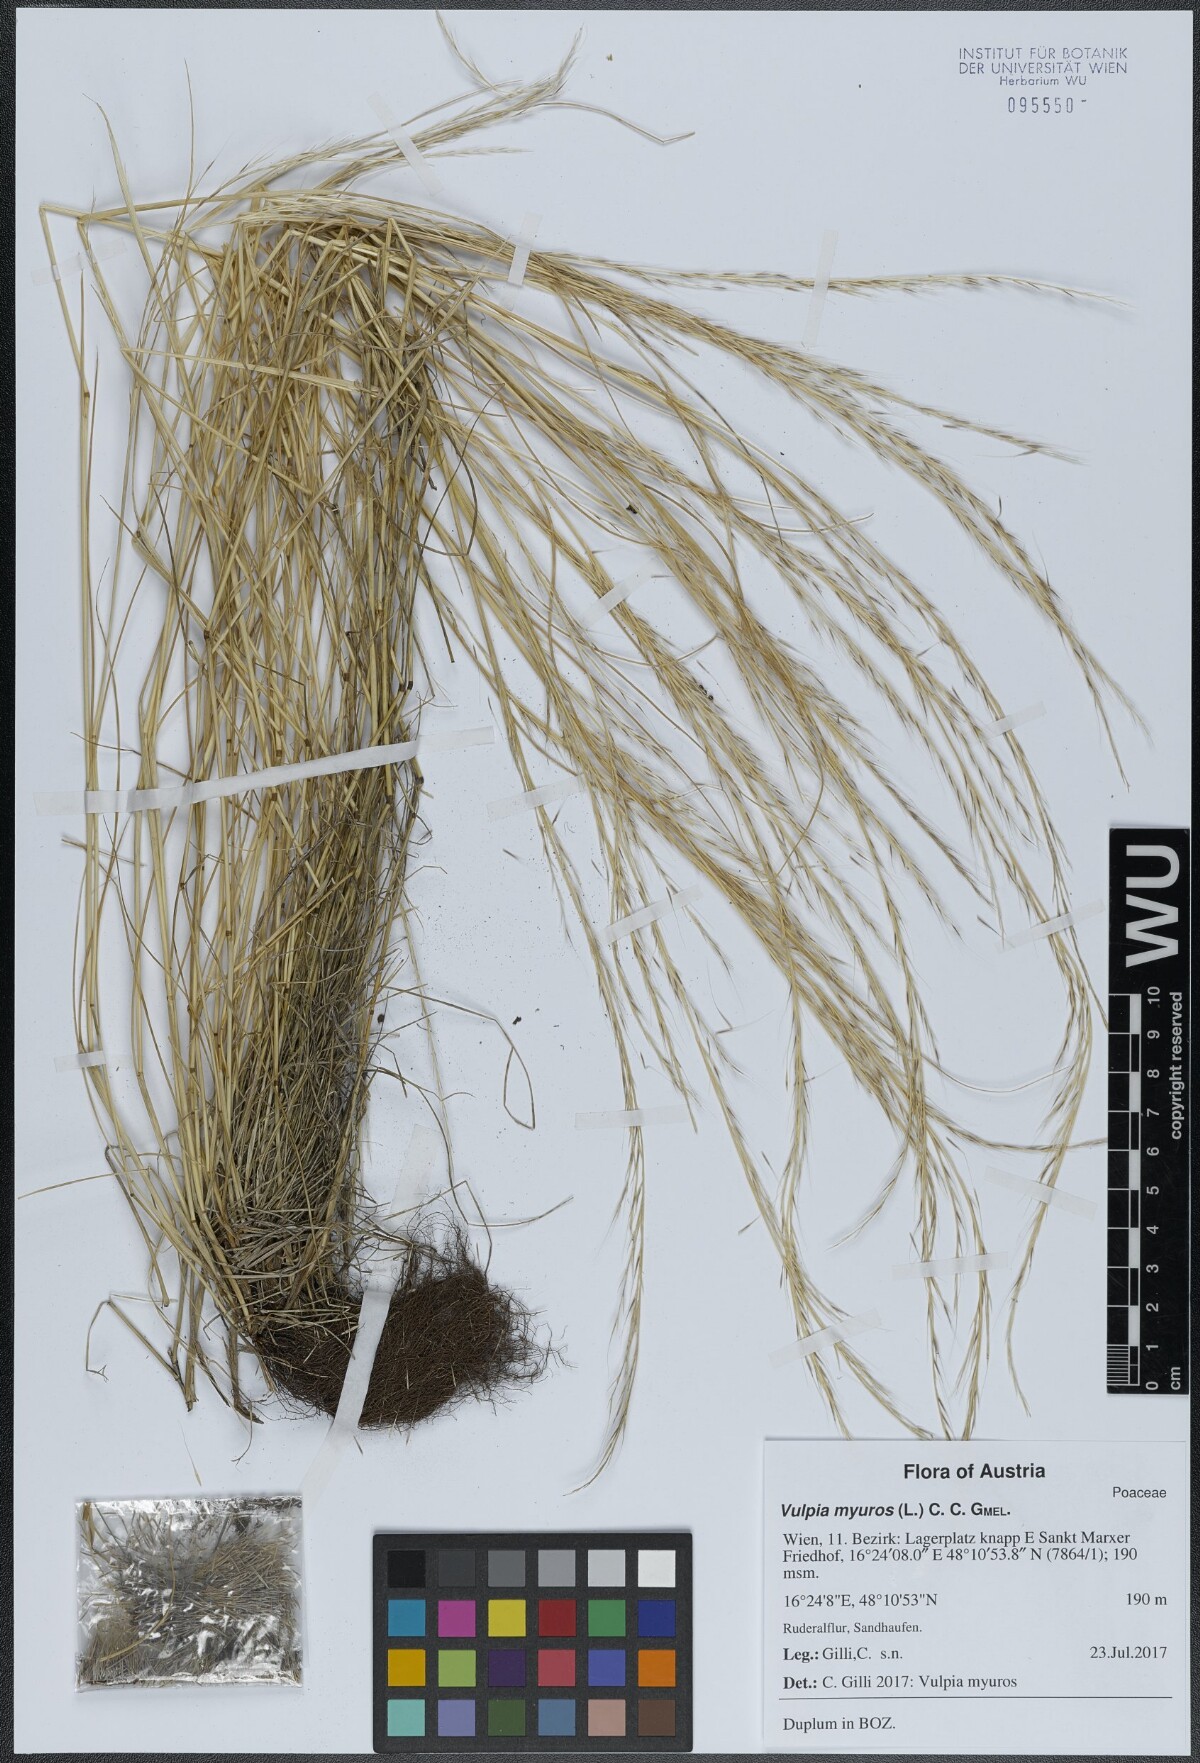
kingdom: Plantae
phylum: Tracheophyta
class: Liliopsida
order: Poales
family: Poaceae
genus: Festuca
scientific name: Festuca myuros
